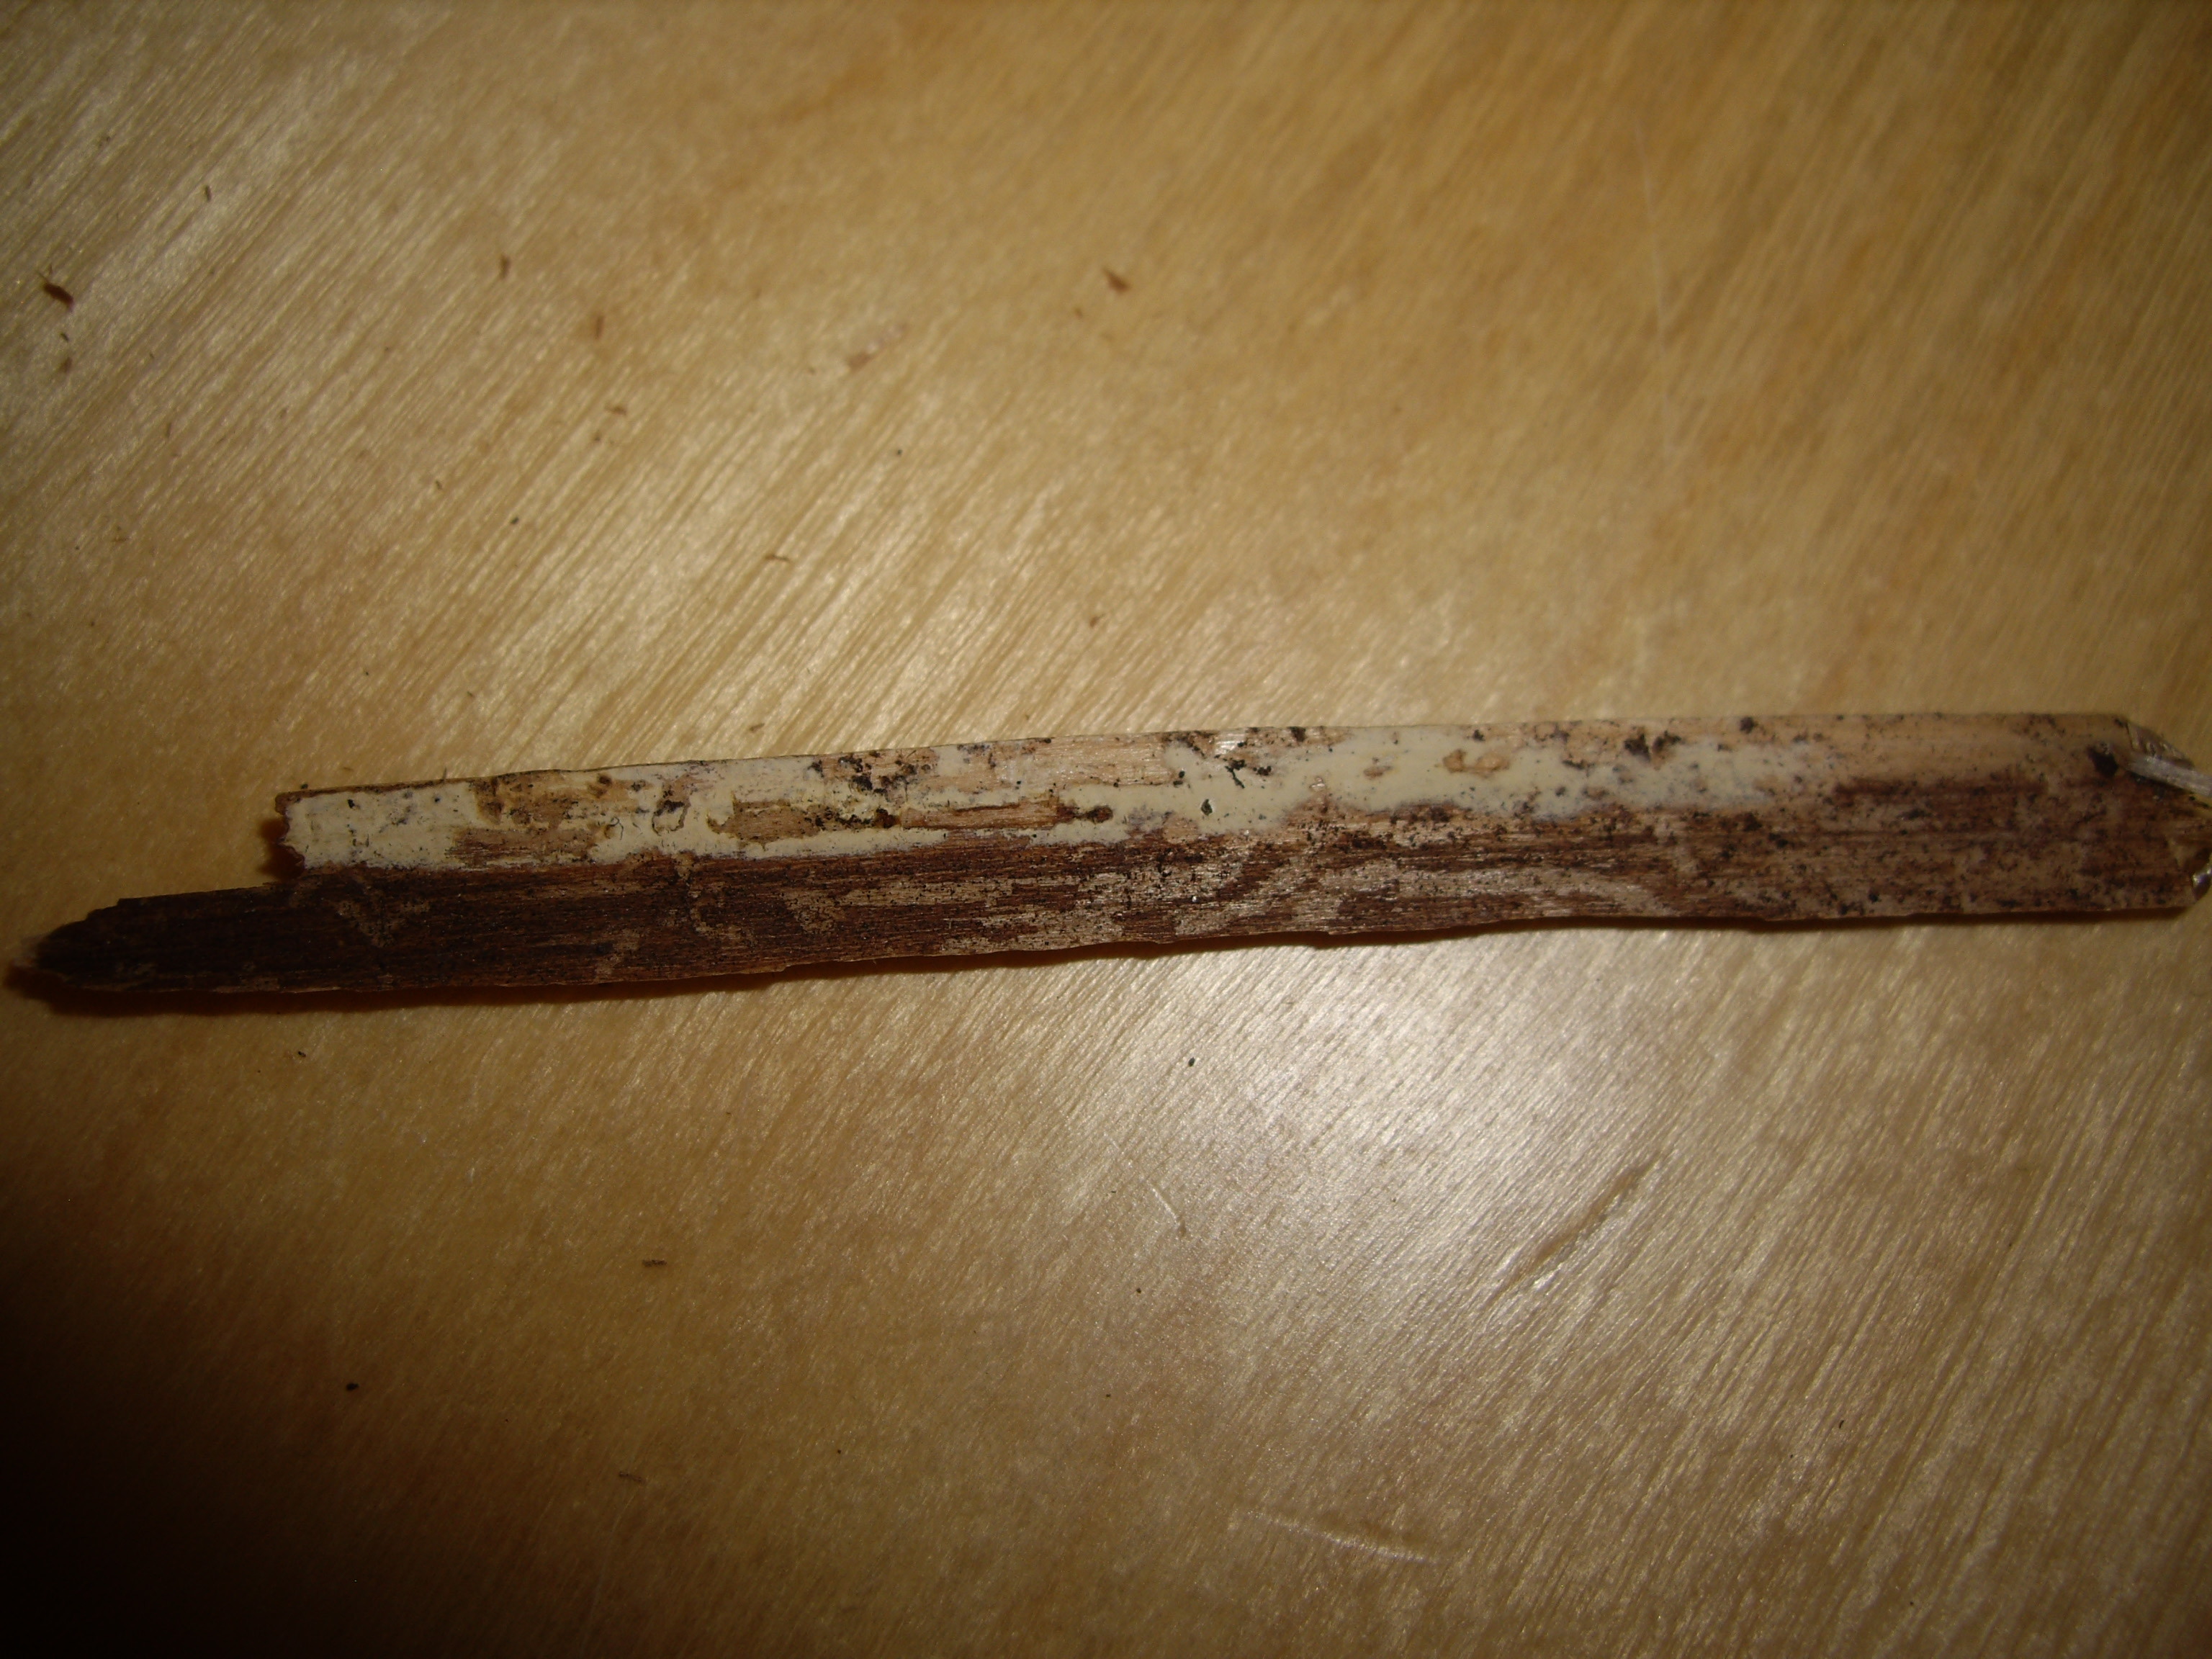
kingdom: Fungi
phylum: Basidiomycota
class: Agaricomycetes
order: Russulales
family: Stereaceae
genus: Gloeocystidiellum
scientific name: Gloeocystidiellum porosum
